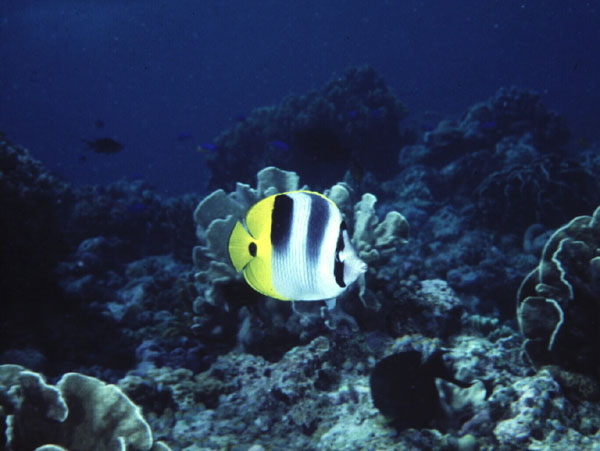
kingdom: Animalia
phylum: Chordata
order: Perciformes
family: Chaetodontidae
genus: Chaetodon
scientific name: Chaetodon ulietensis
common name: Pacific double-saddle butterflyfish
